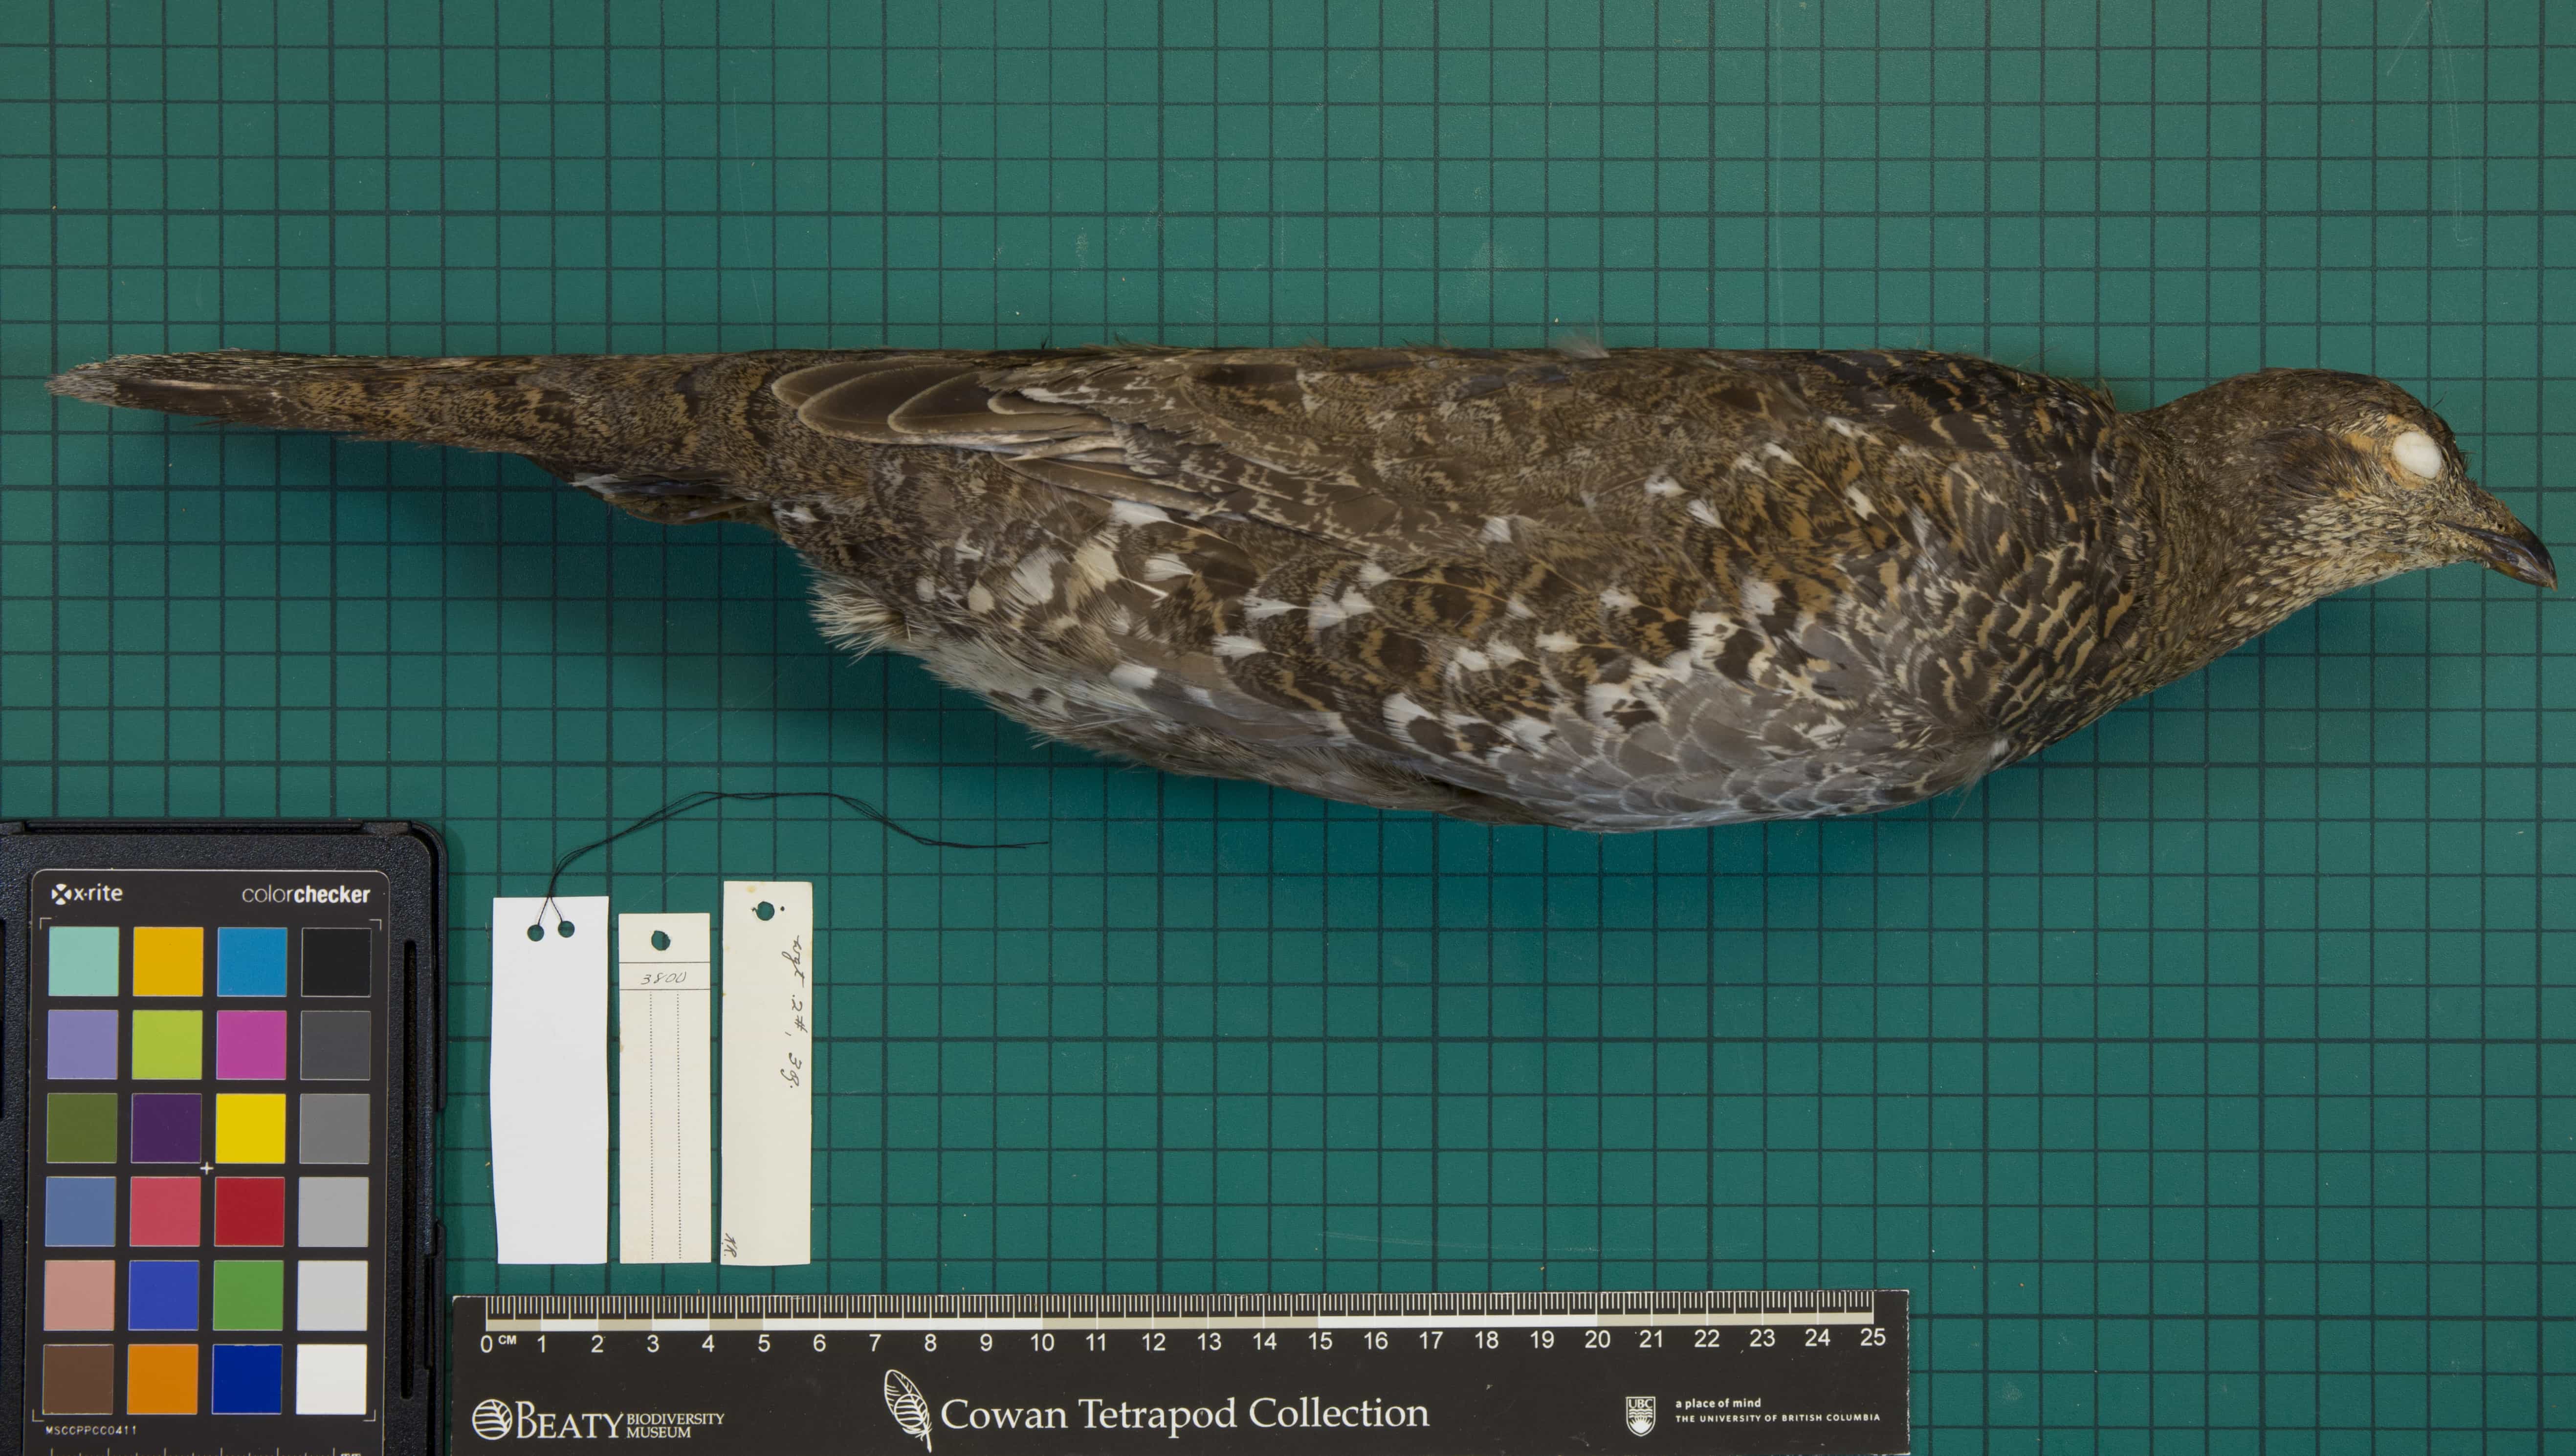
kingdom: Animalia
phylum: Chordata
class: Aves
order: Galliformes
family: Phasianidae
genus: Dendragapus
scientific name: Dendragapus fuliginosus
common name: Sooty Grouse
